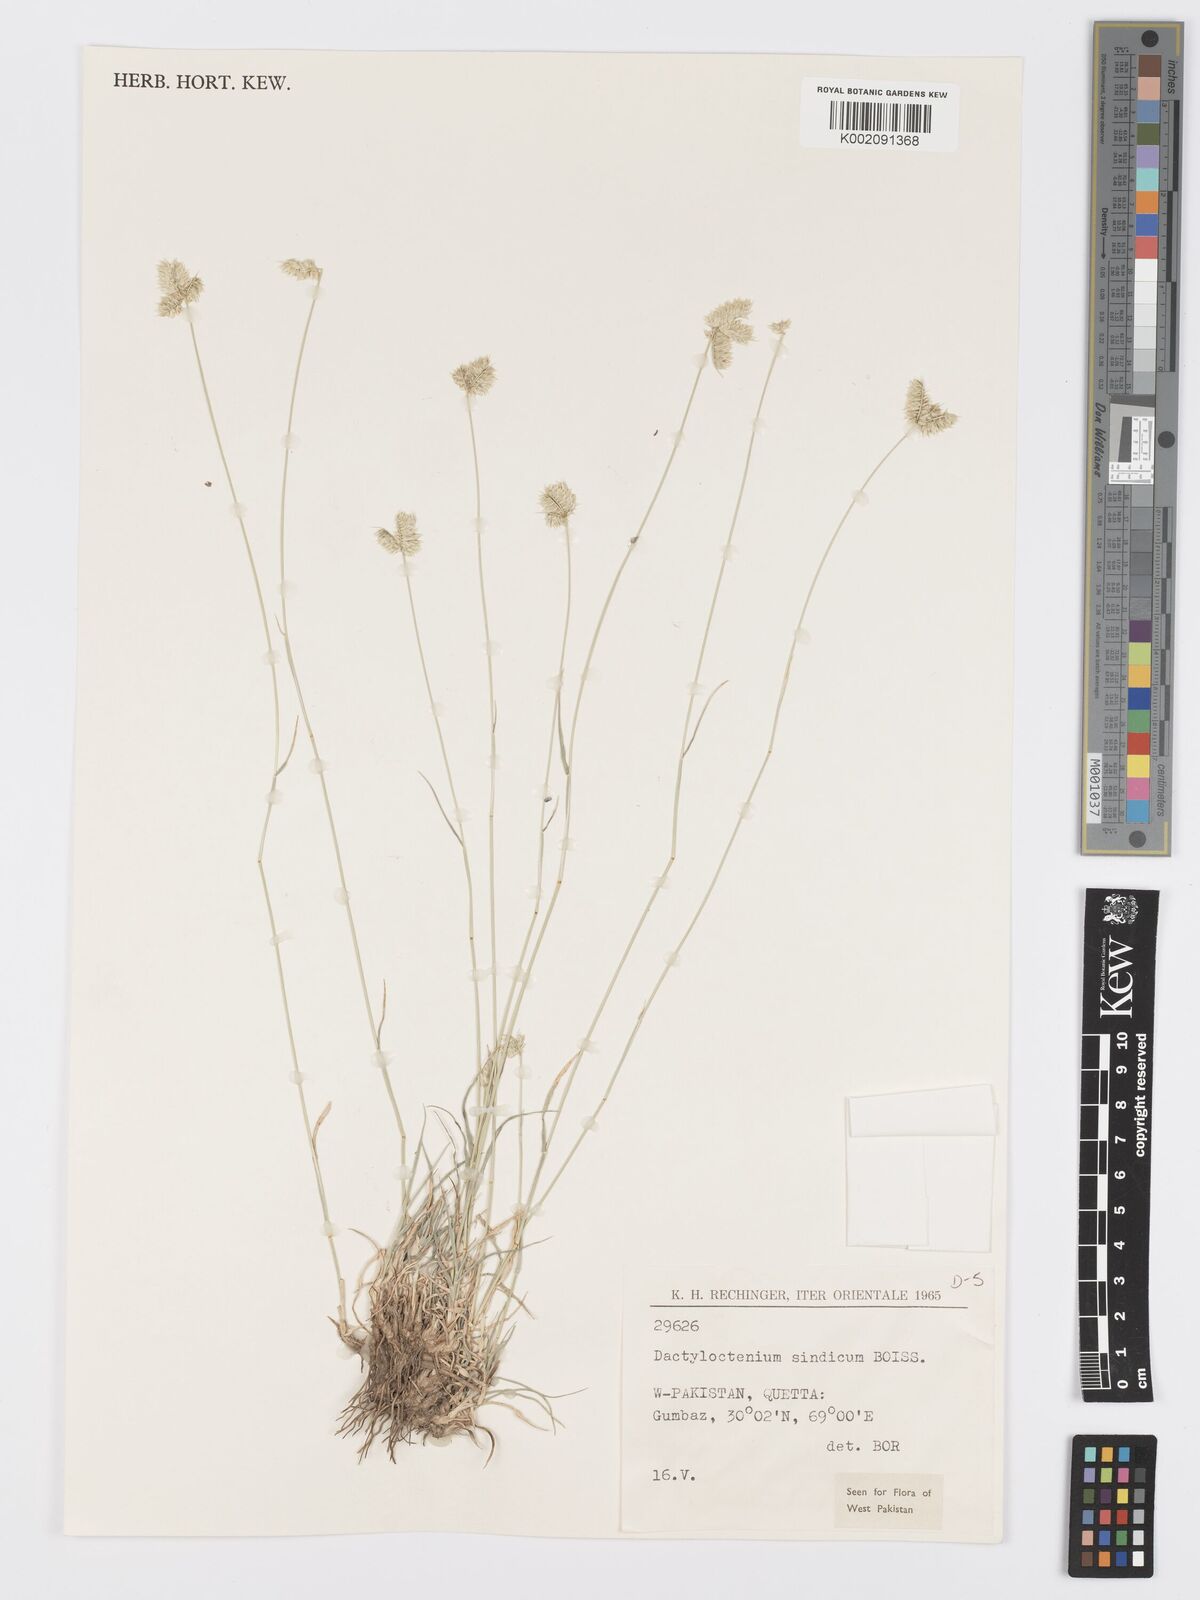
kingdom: Plantae
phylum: Tracheophyta
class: Liliopsida
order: Poales
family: Poaceae
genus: Dactyloctenium
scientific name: Dactyloctenium scindicum
